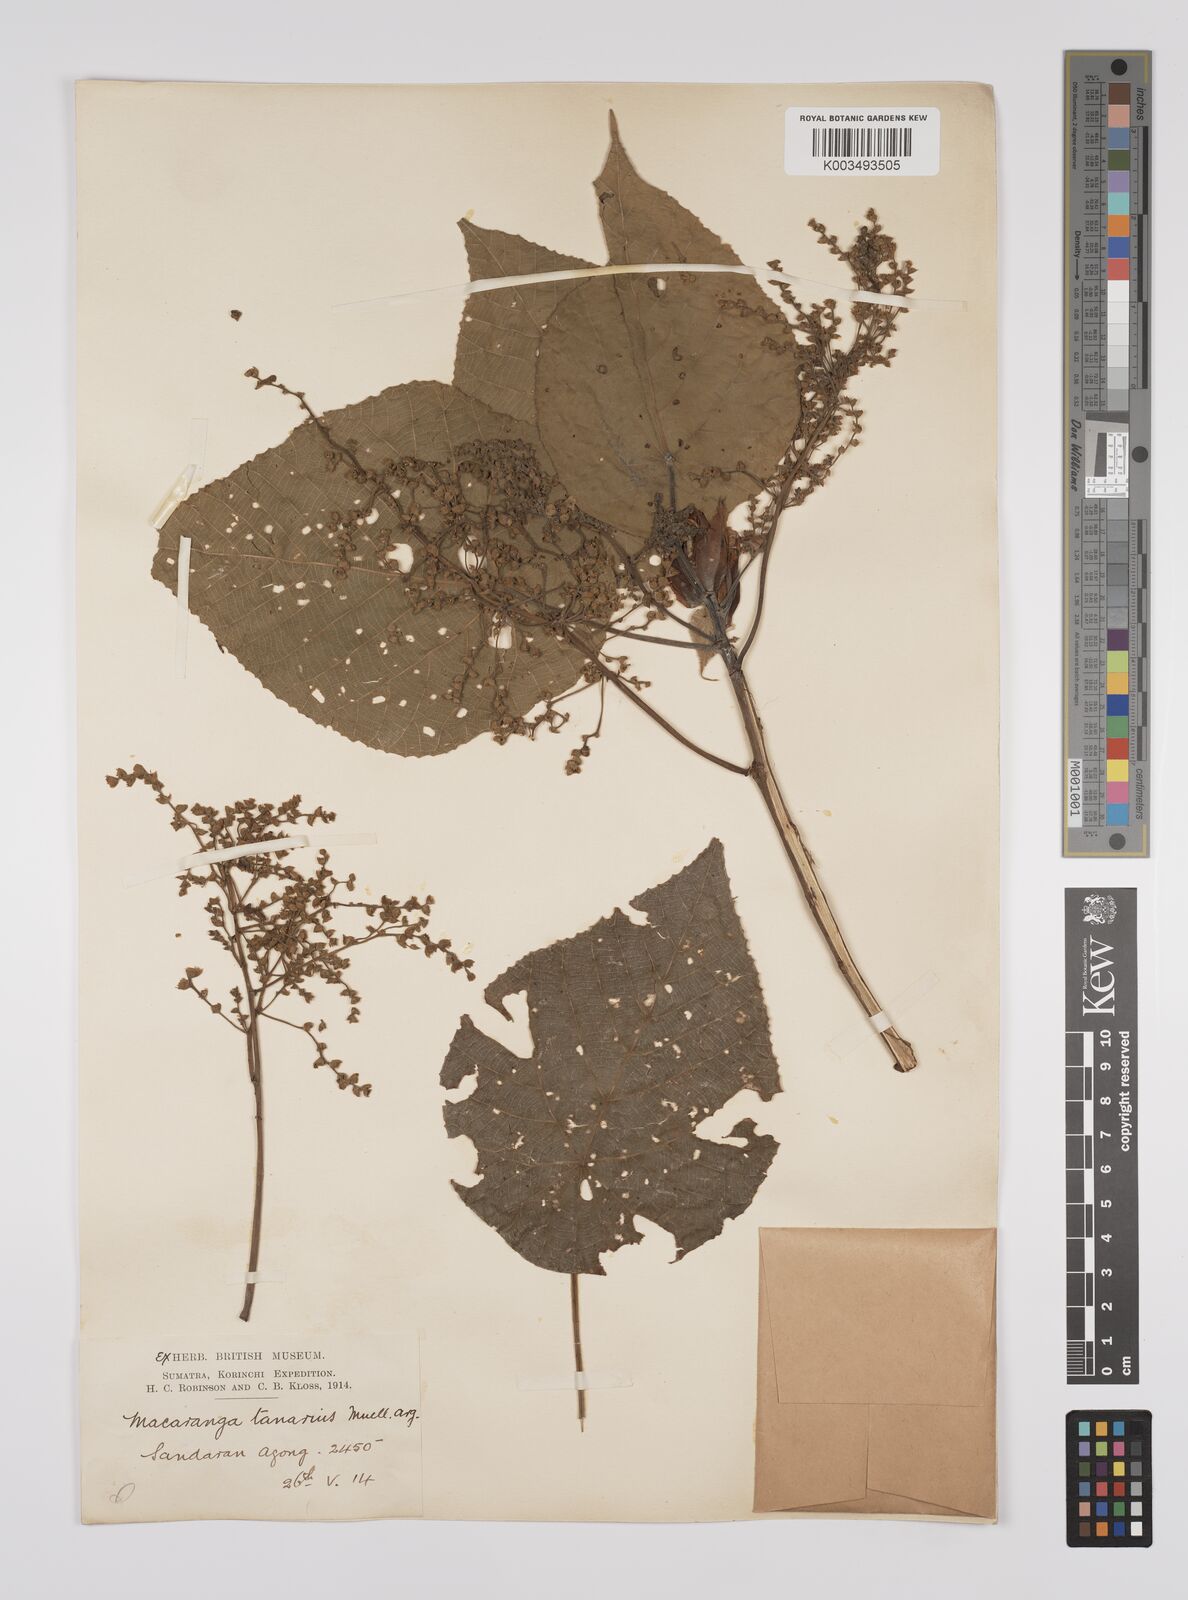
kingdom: Plantae
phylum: Tracheophyta
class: Magnoliopsida
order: Malpighiales
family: Euphorbiaceae
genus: Macaranga
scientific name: Macaranga tanarius
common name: Parasol leaf tree
